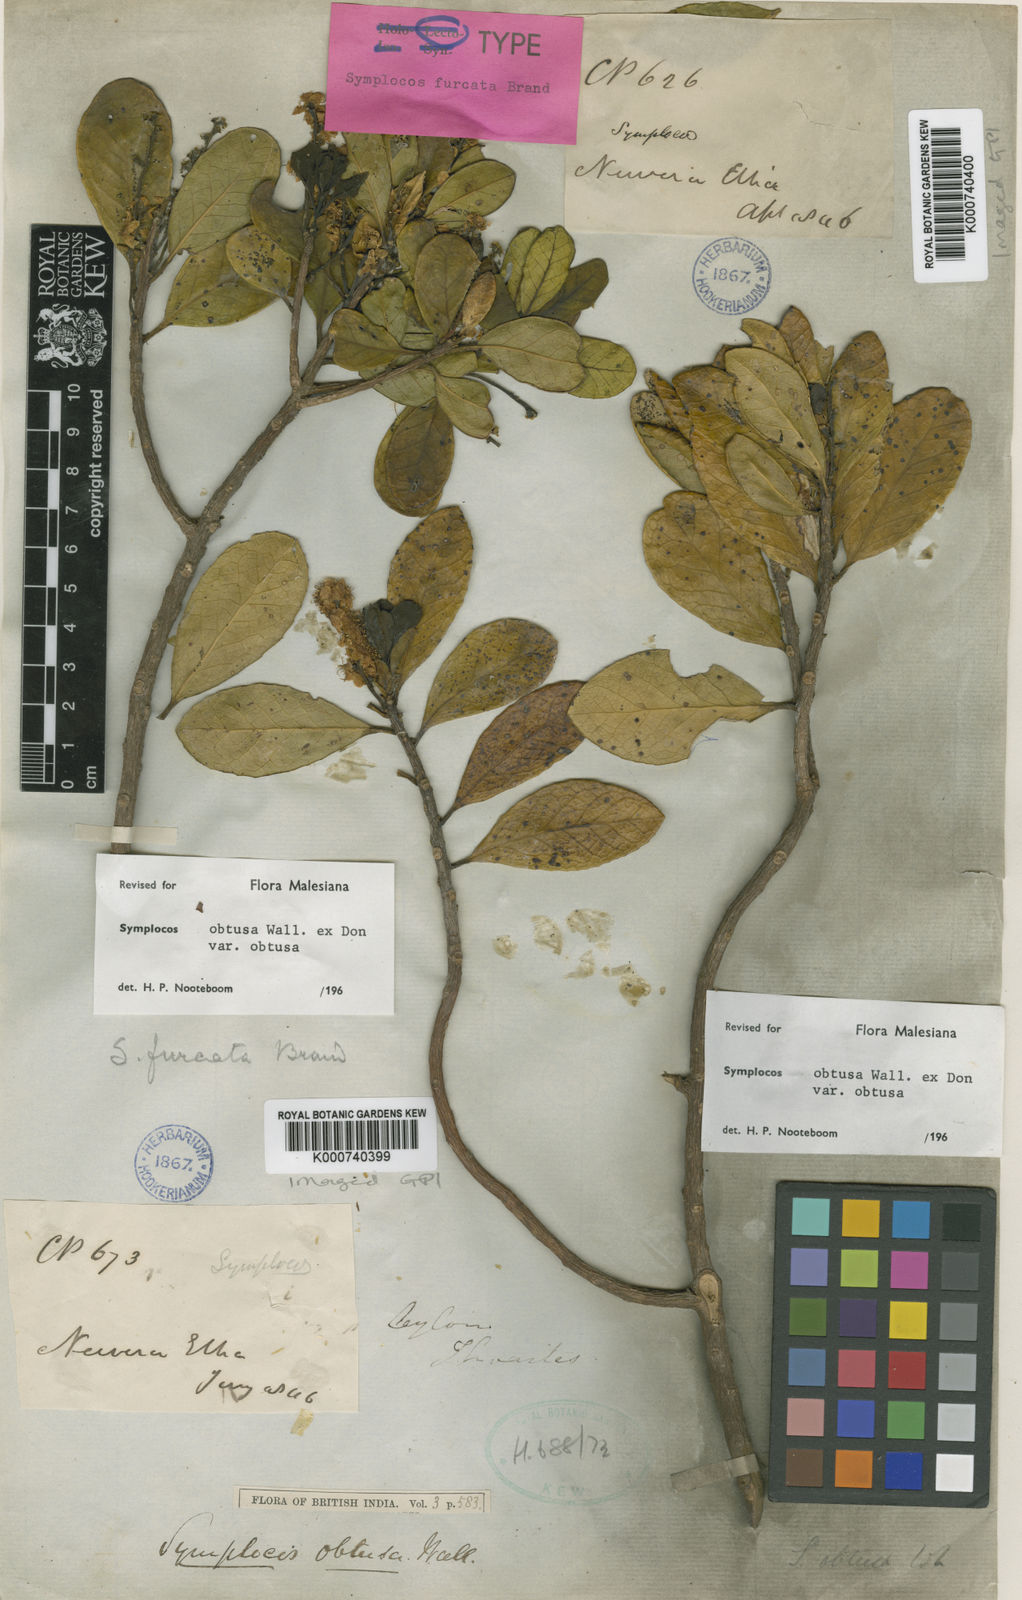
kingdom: Plantae
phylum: Tracheophyta
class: Magnoliopsida
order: Ericales
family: Symplocaceae
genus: Symplocos
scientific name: Symplocos
